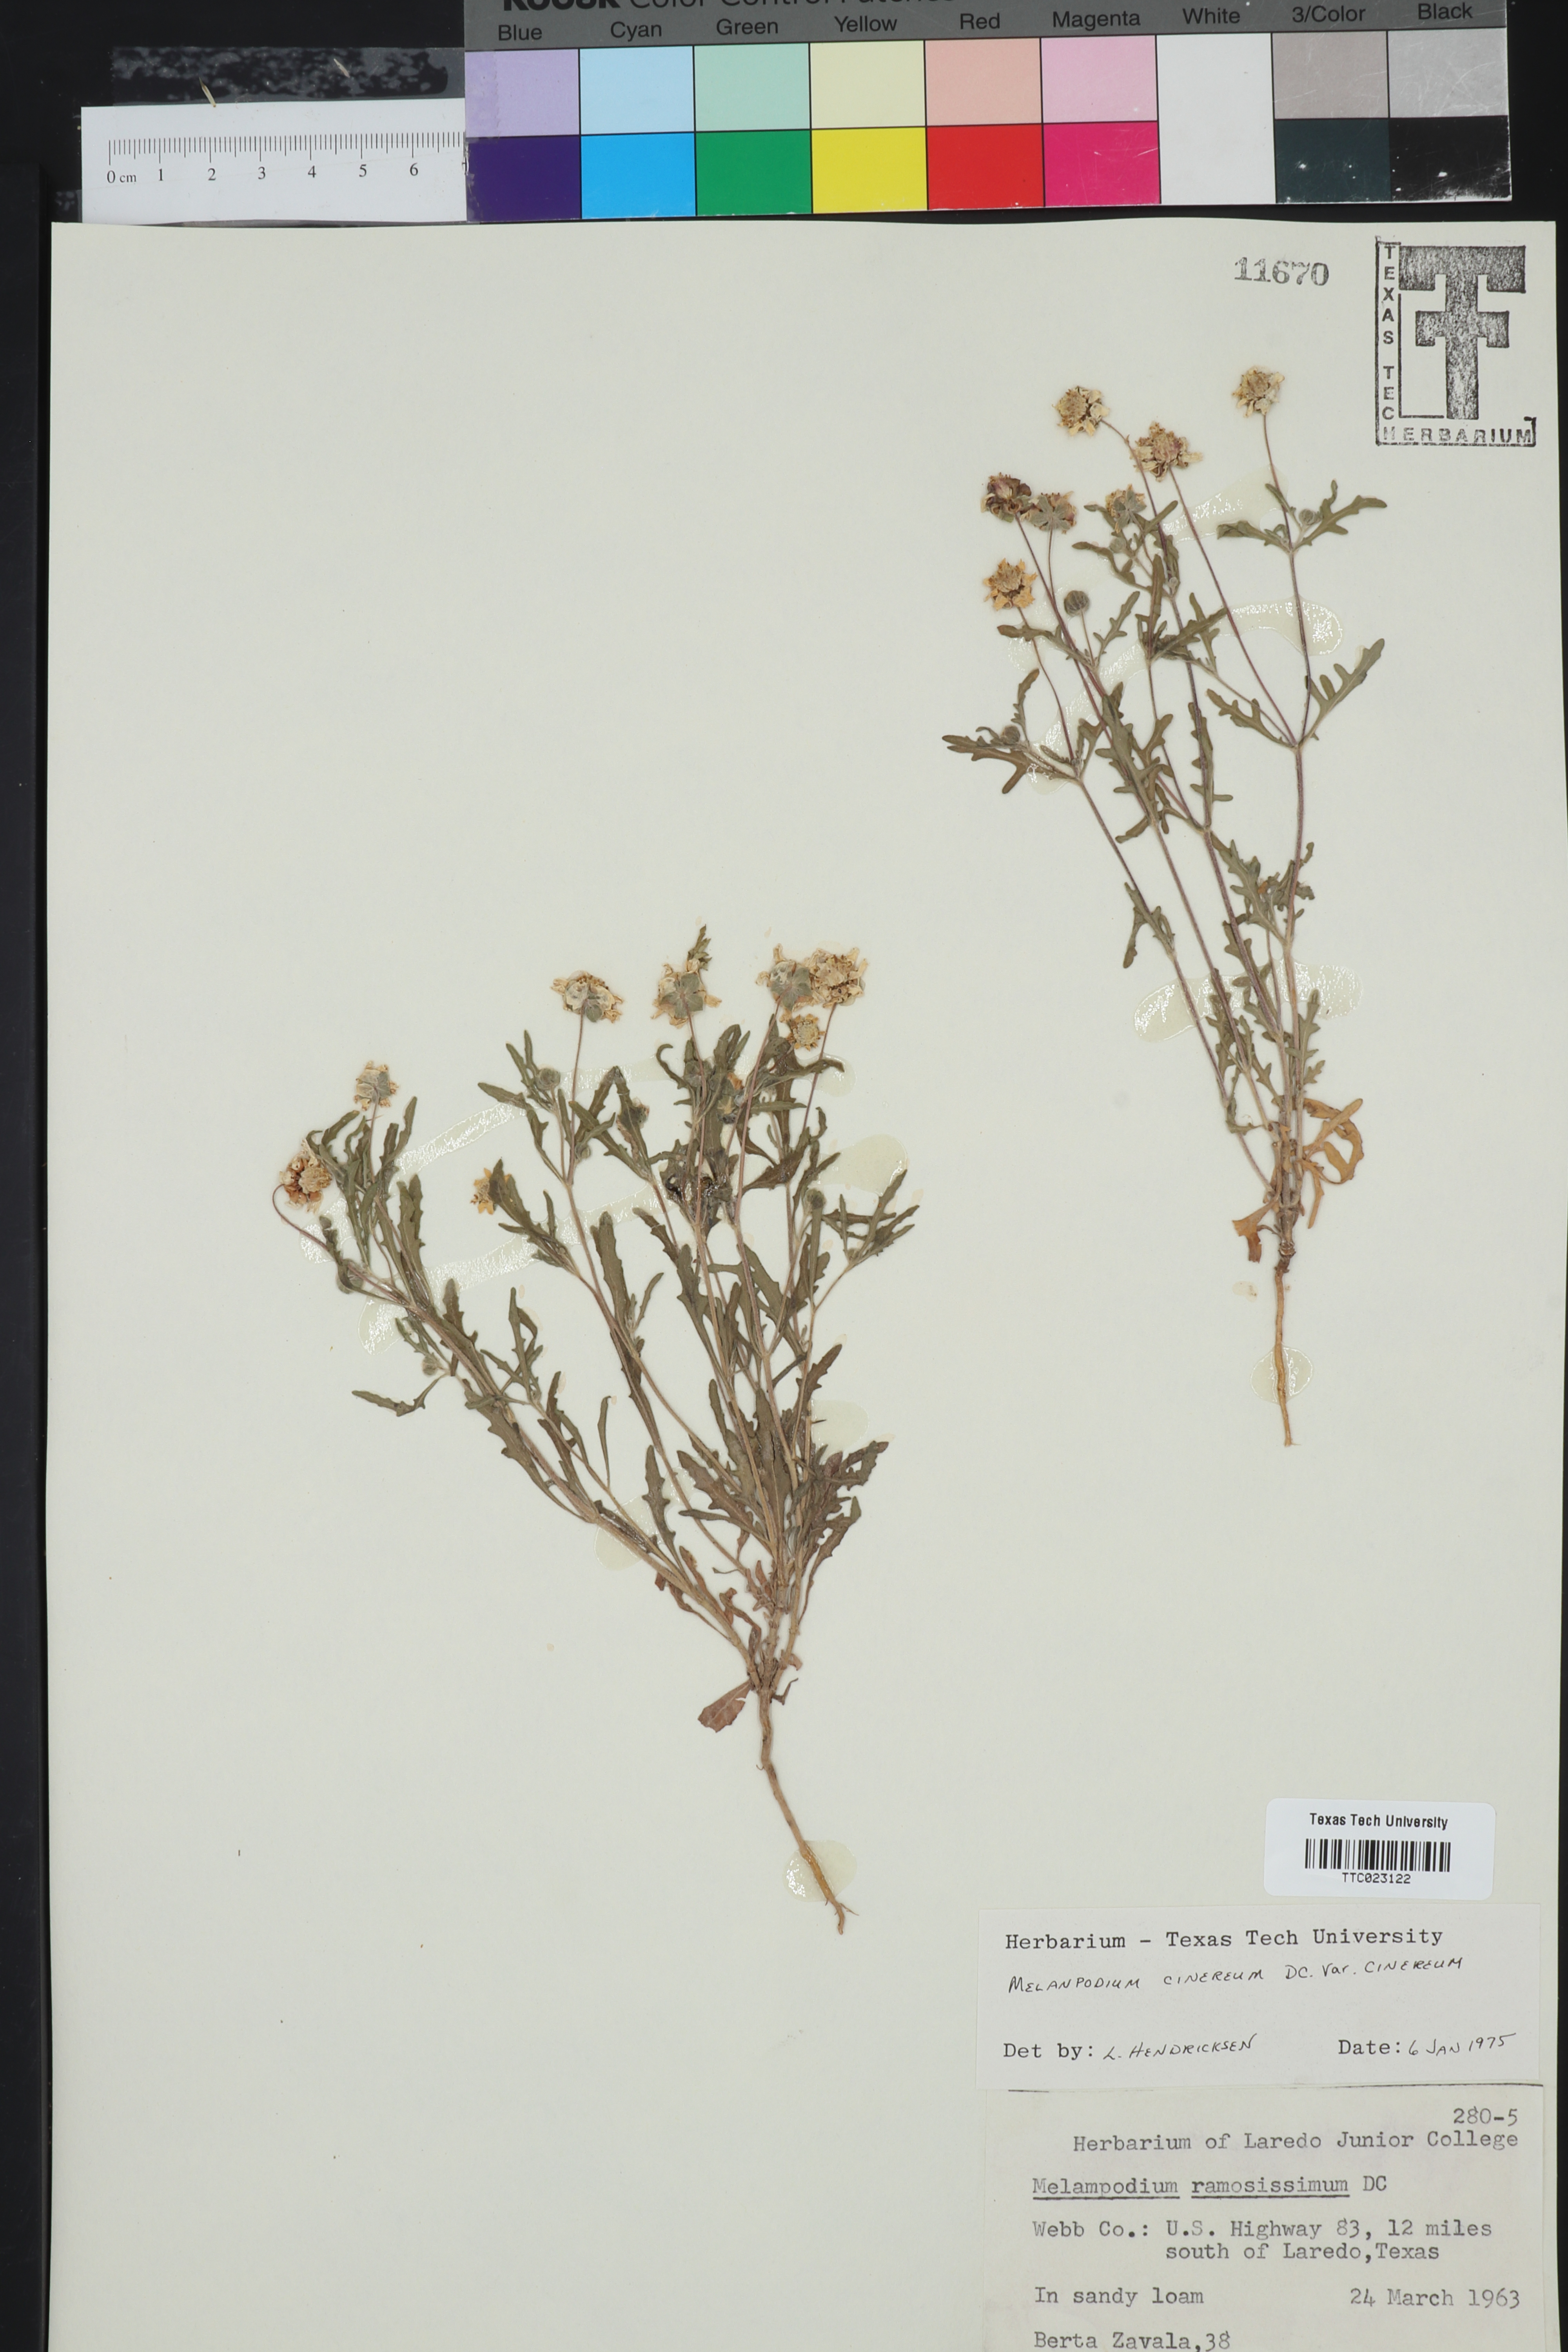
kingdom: Plantae
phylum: Tracheophyta
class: Magnoliopsida
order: Asterales
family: Asteraceae
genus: Melampodium
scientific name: Melampodium cinereum
